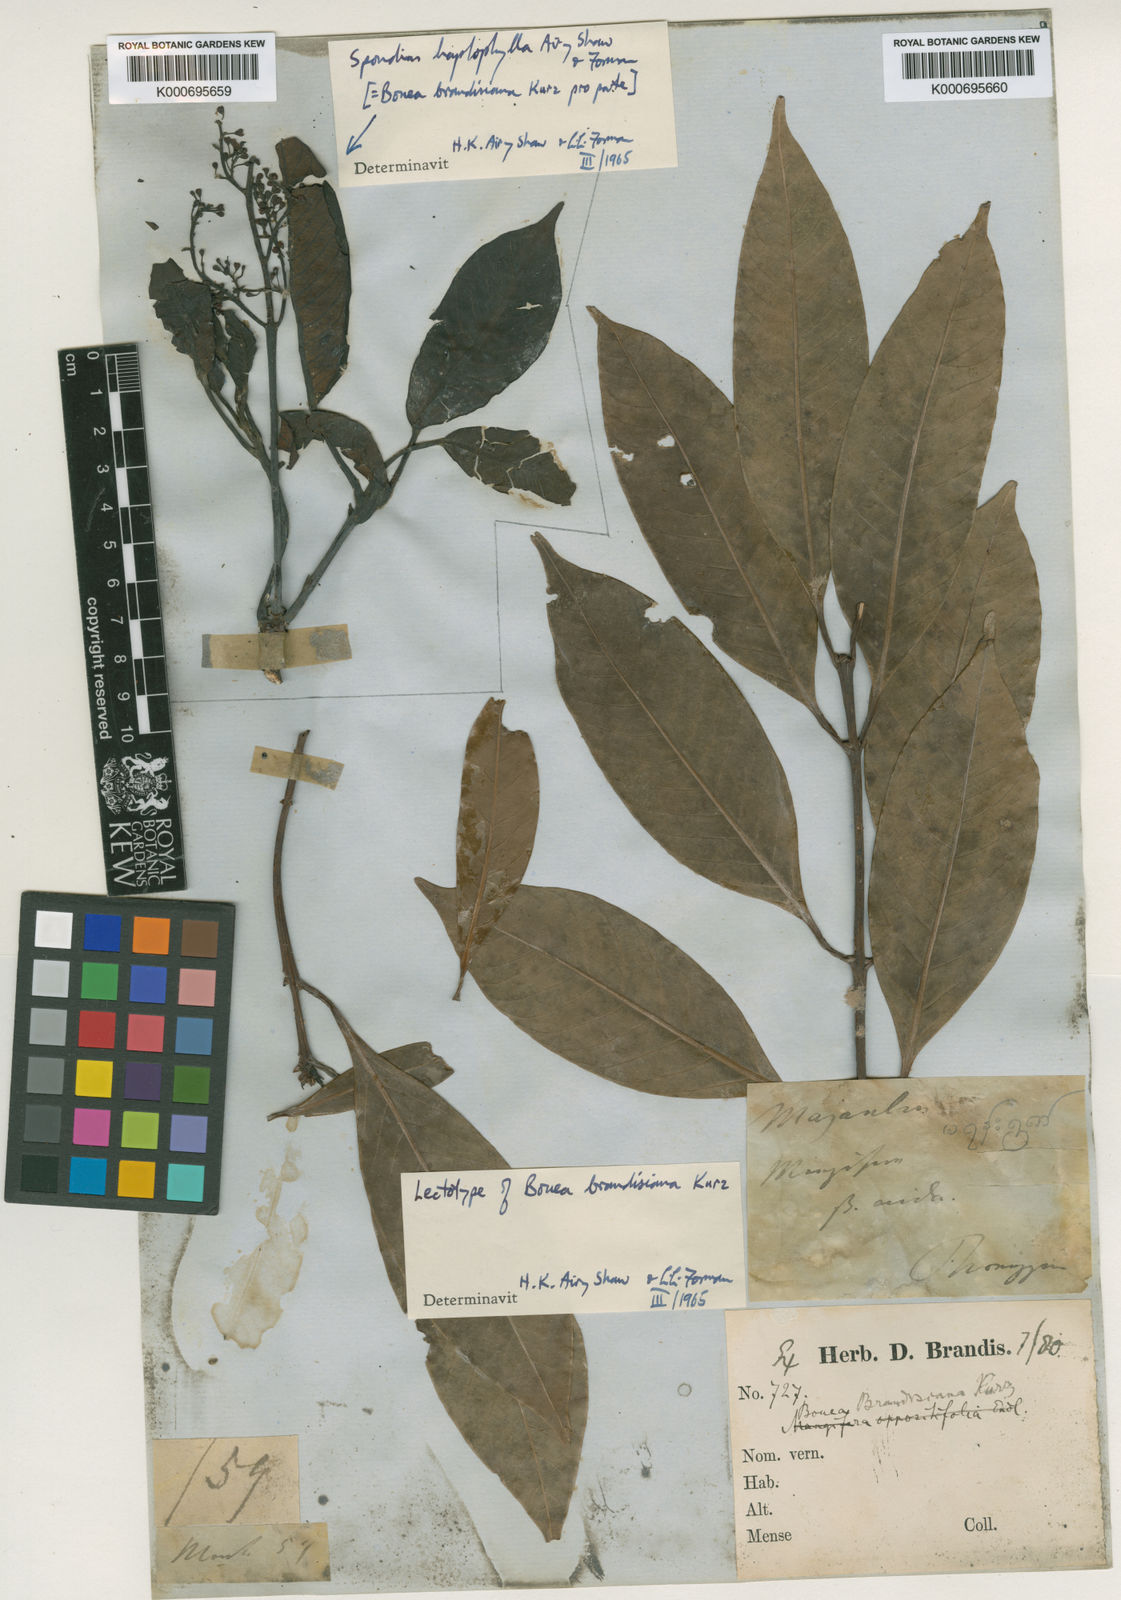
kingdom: Plantae
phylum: Tracheophyta
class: Magnoliopsida
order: Sapindales
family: Anacardiaceae
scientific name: Anacardiaceae
